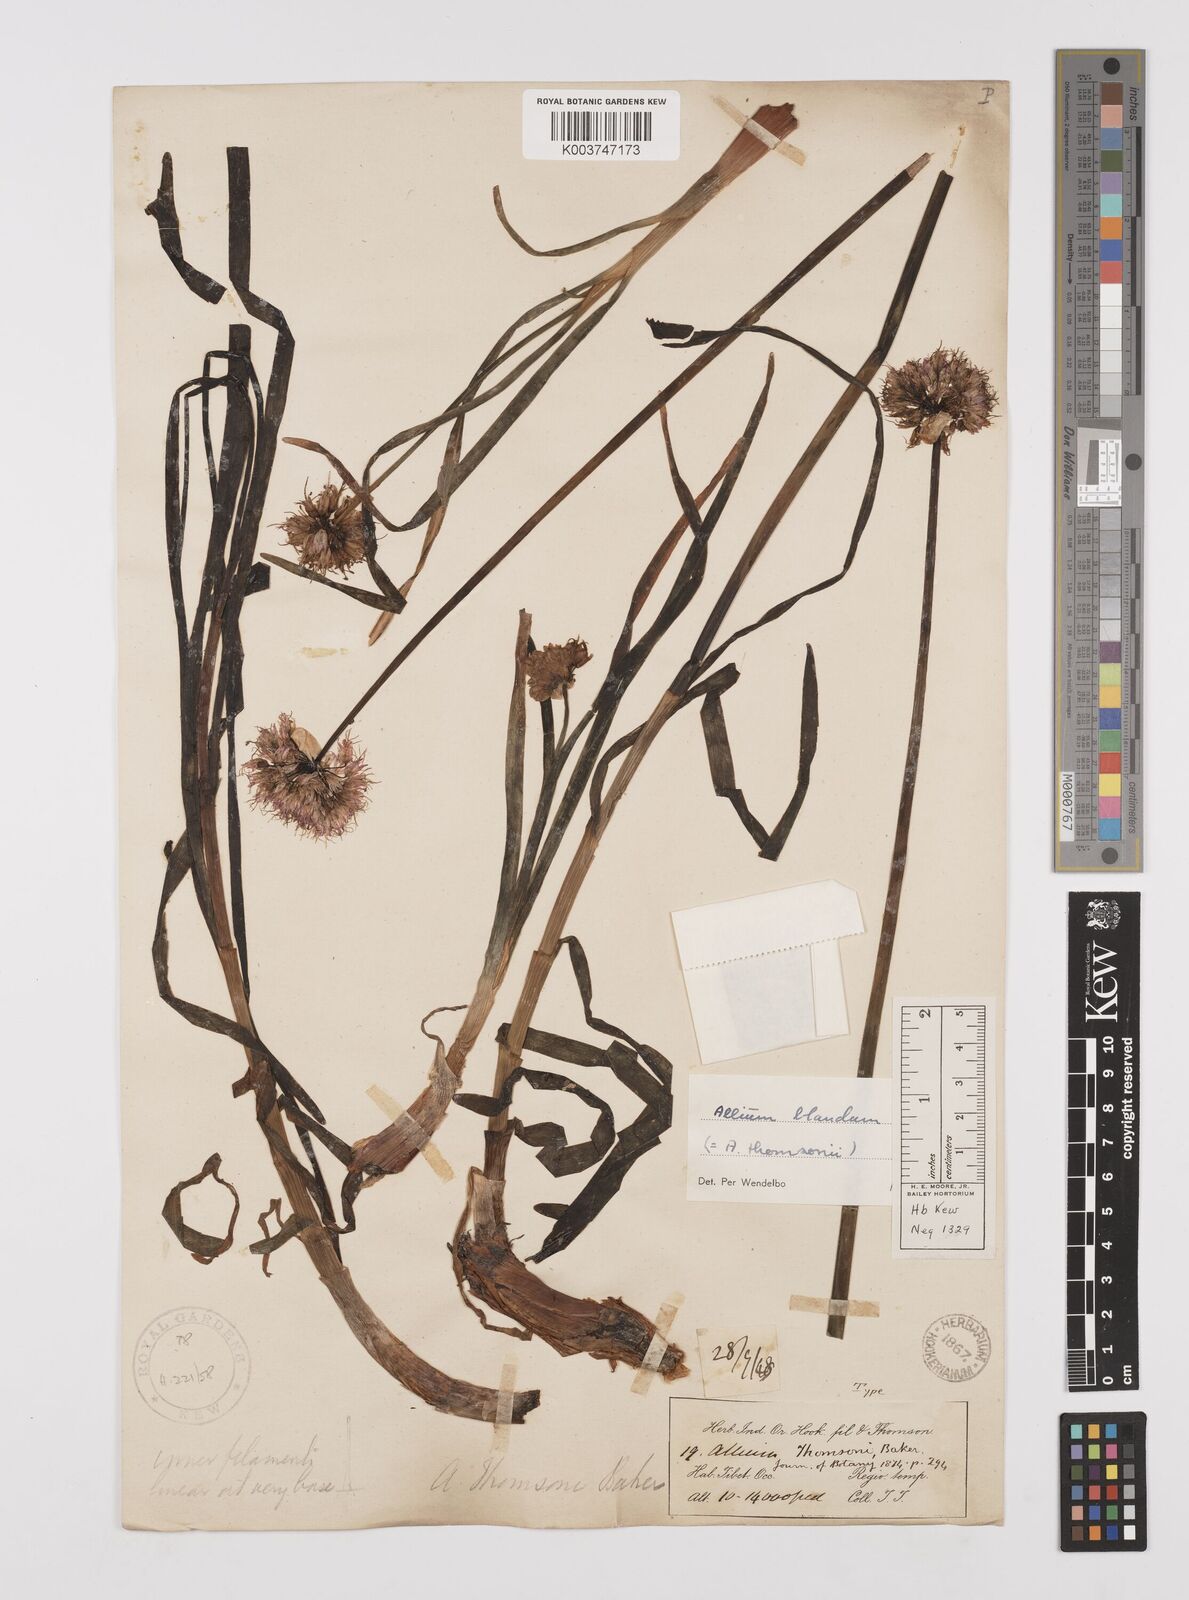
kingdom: Plantae
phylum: Tracheophyta
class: Liliopsida
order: Asparagales
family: Amaryllidaceae
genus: Allium
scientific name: Allium carolinianum
